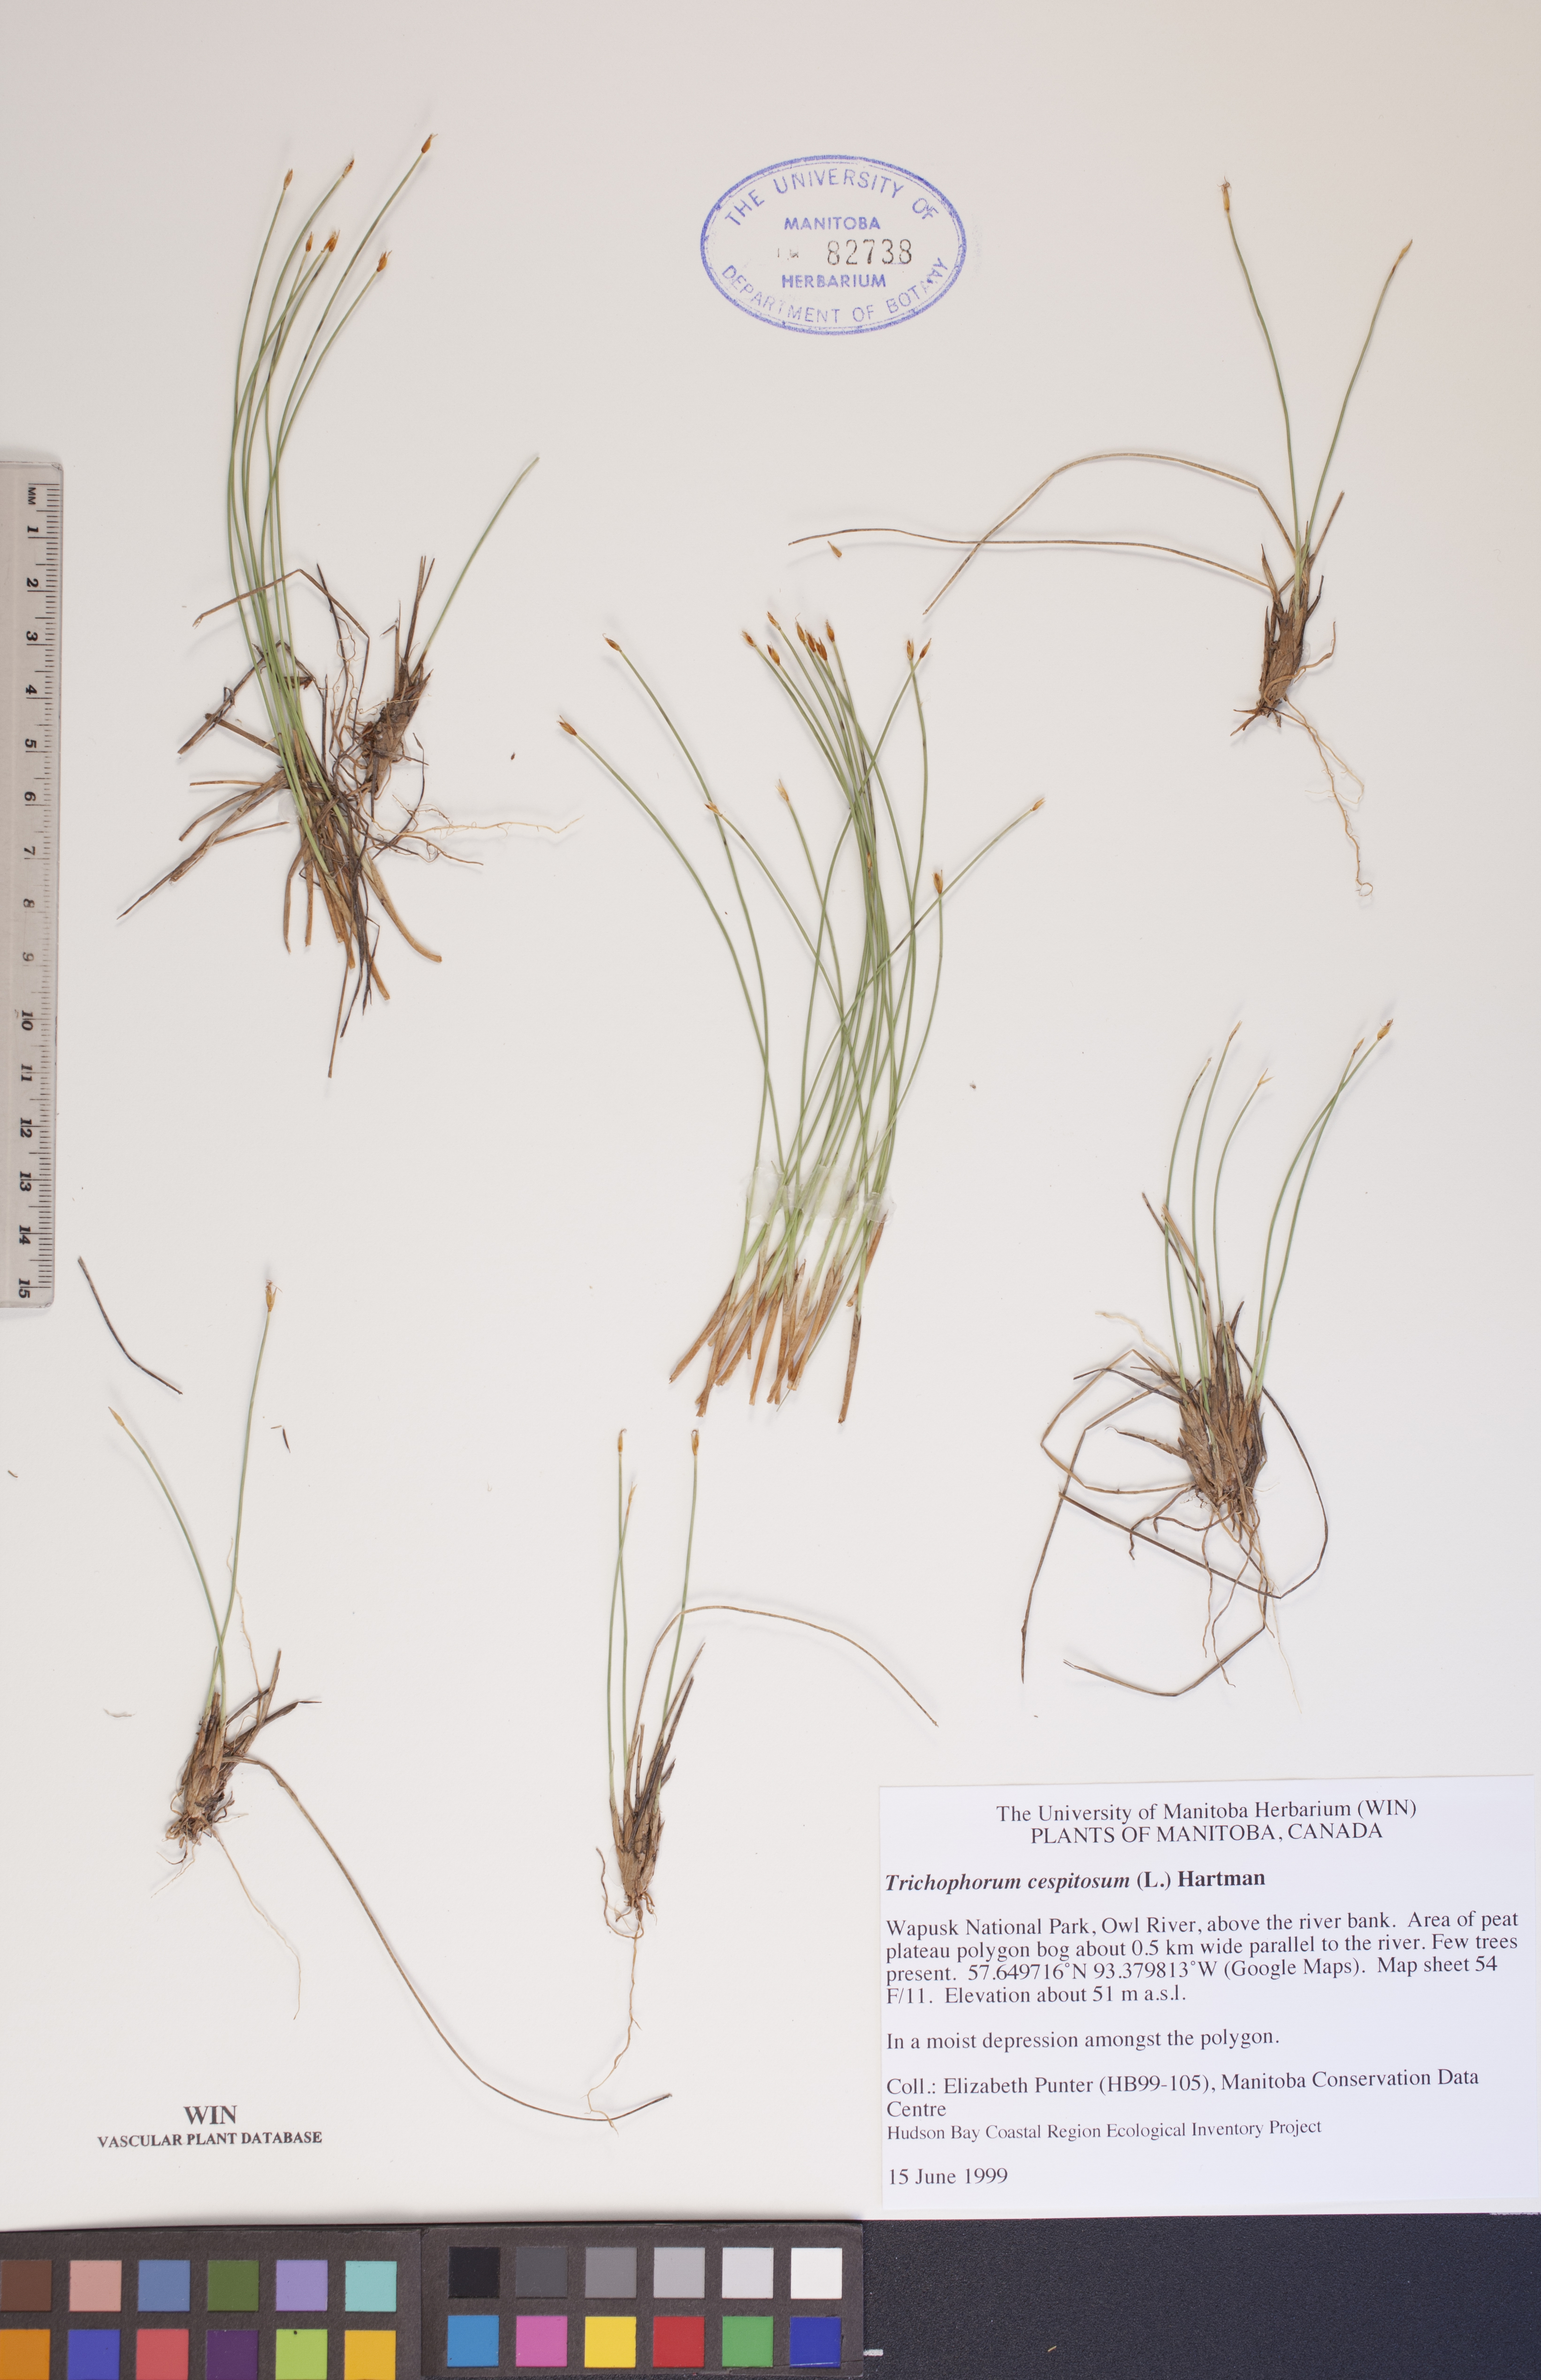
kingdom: Plantae
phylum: Tracheophyta
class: Liliopsida
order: Poales
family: Cyperaceae
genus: Trichophorum
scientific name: Trichophorum cespitosum
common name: Cespitose bulrush
